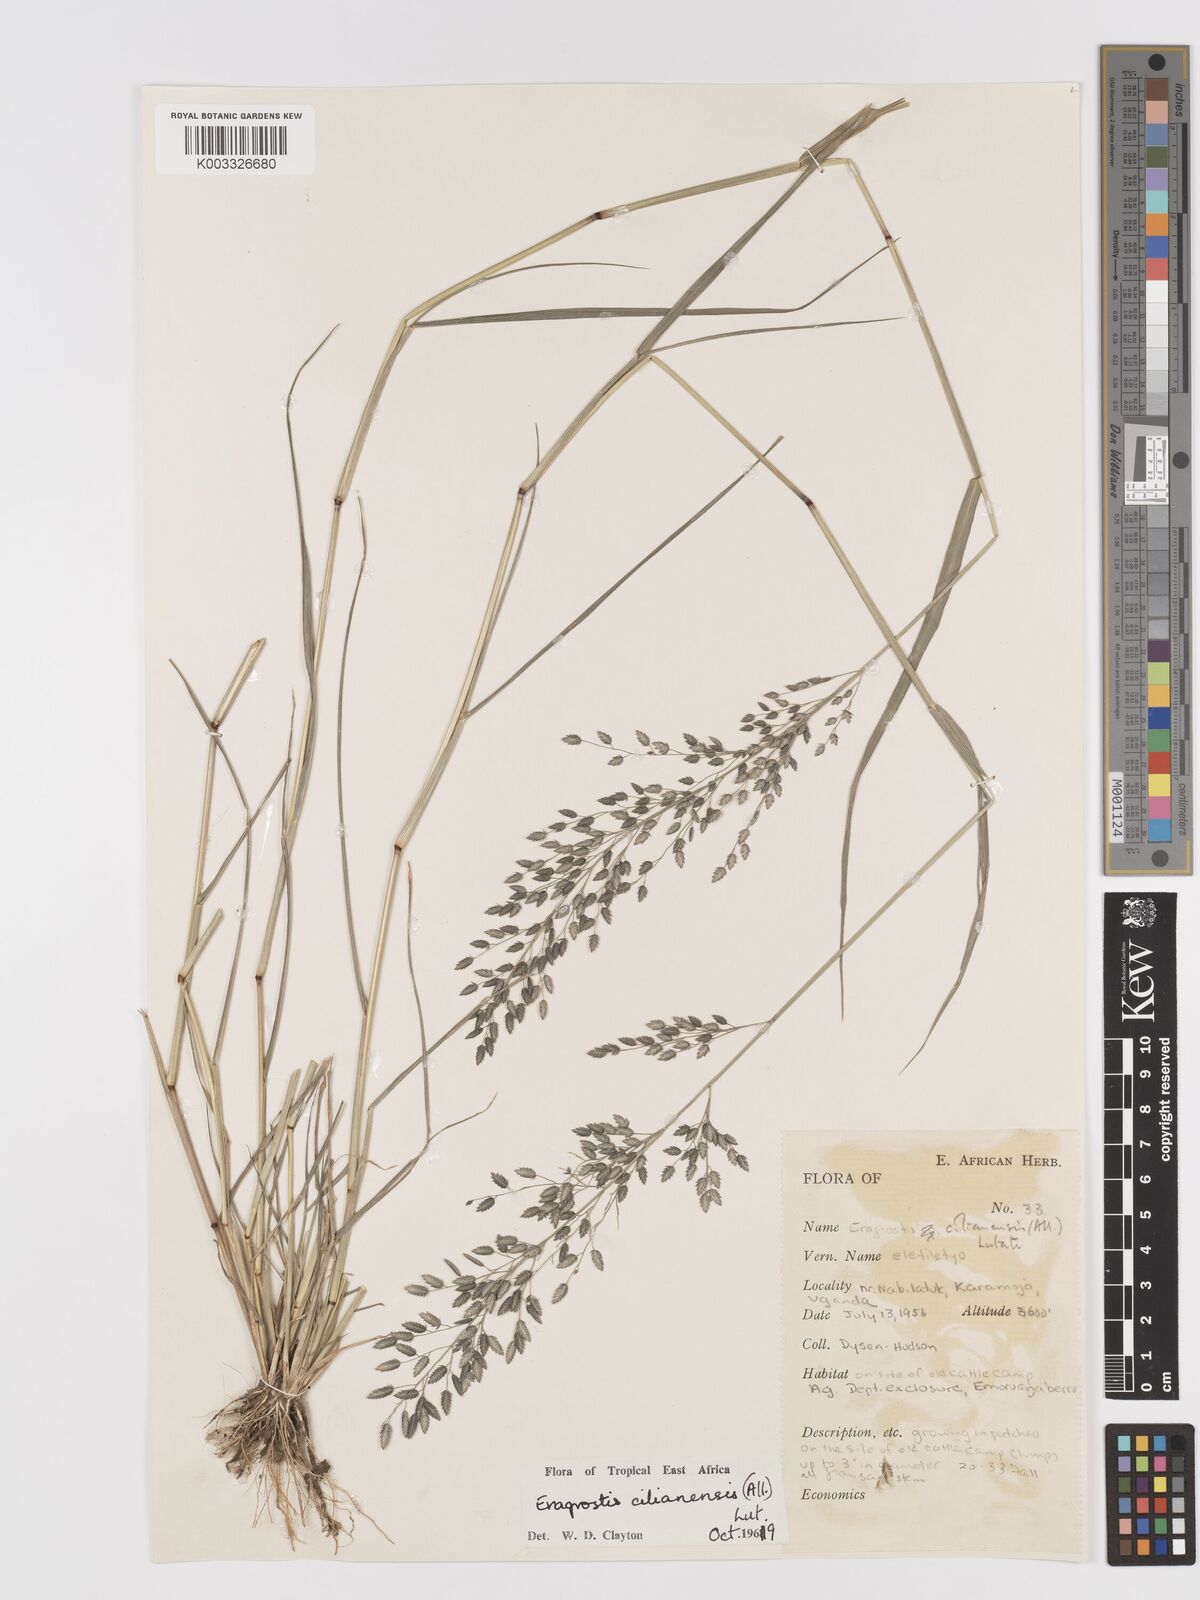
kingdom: Plantae
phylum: Tracheophyta
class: Liliopsida
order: Poales
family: Poaceae
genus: Eragrostis
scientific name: Eragrostis cilianensis
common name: Stinkgrass
